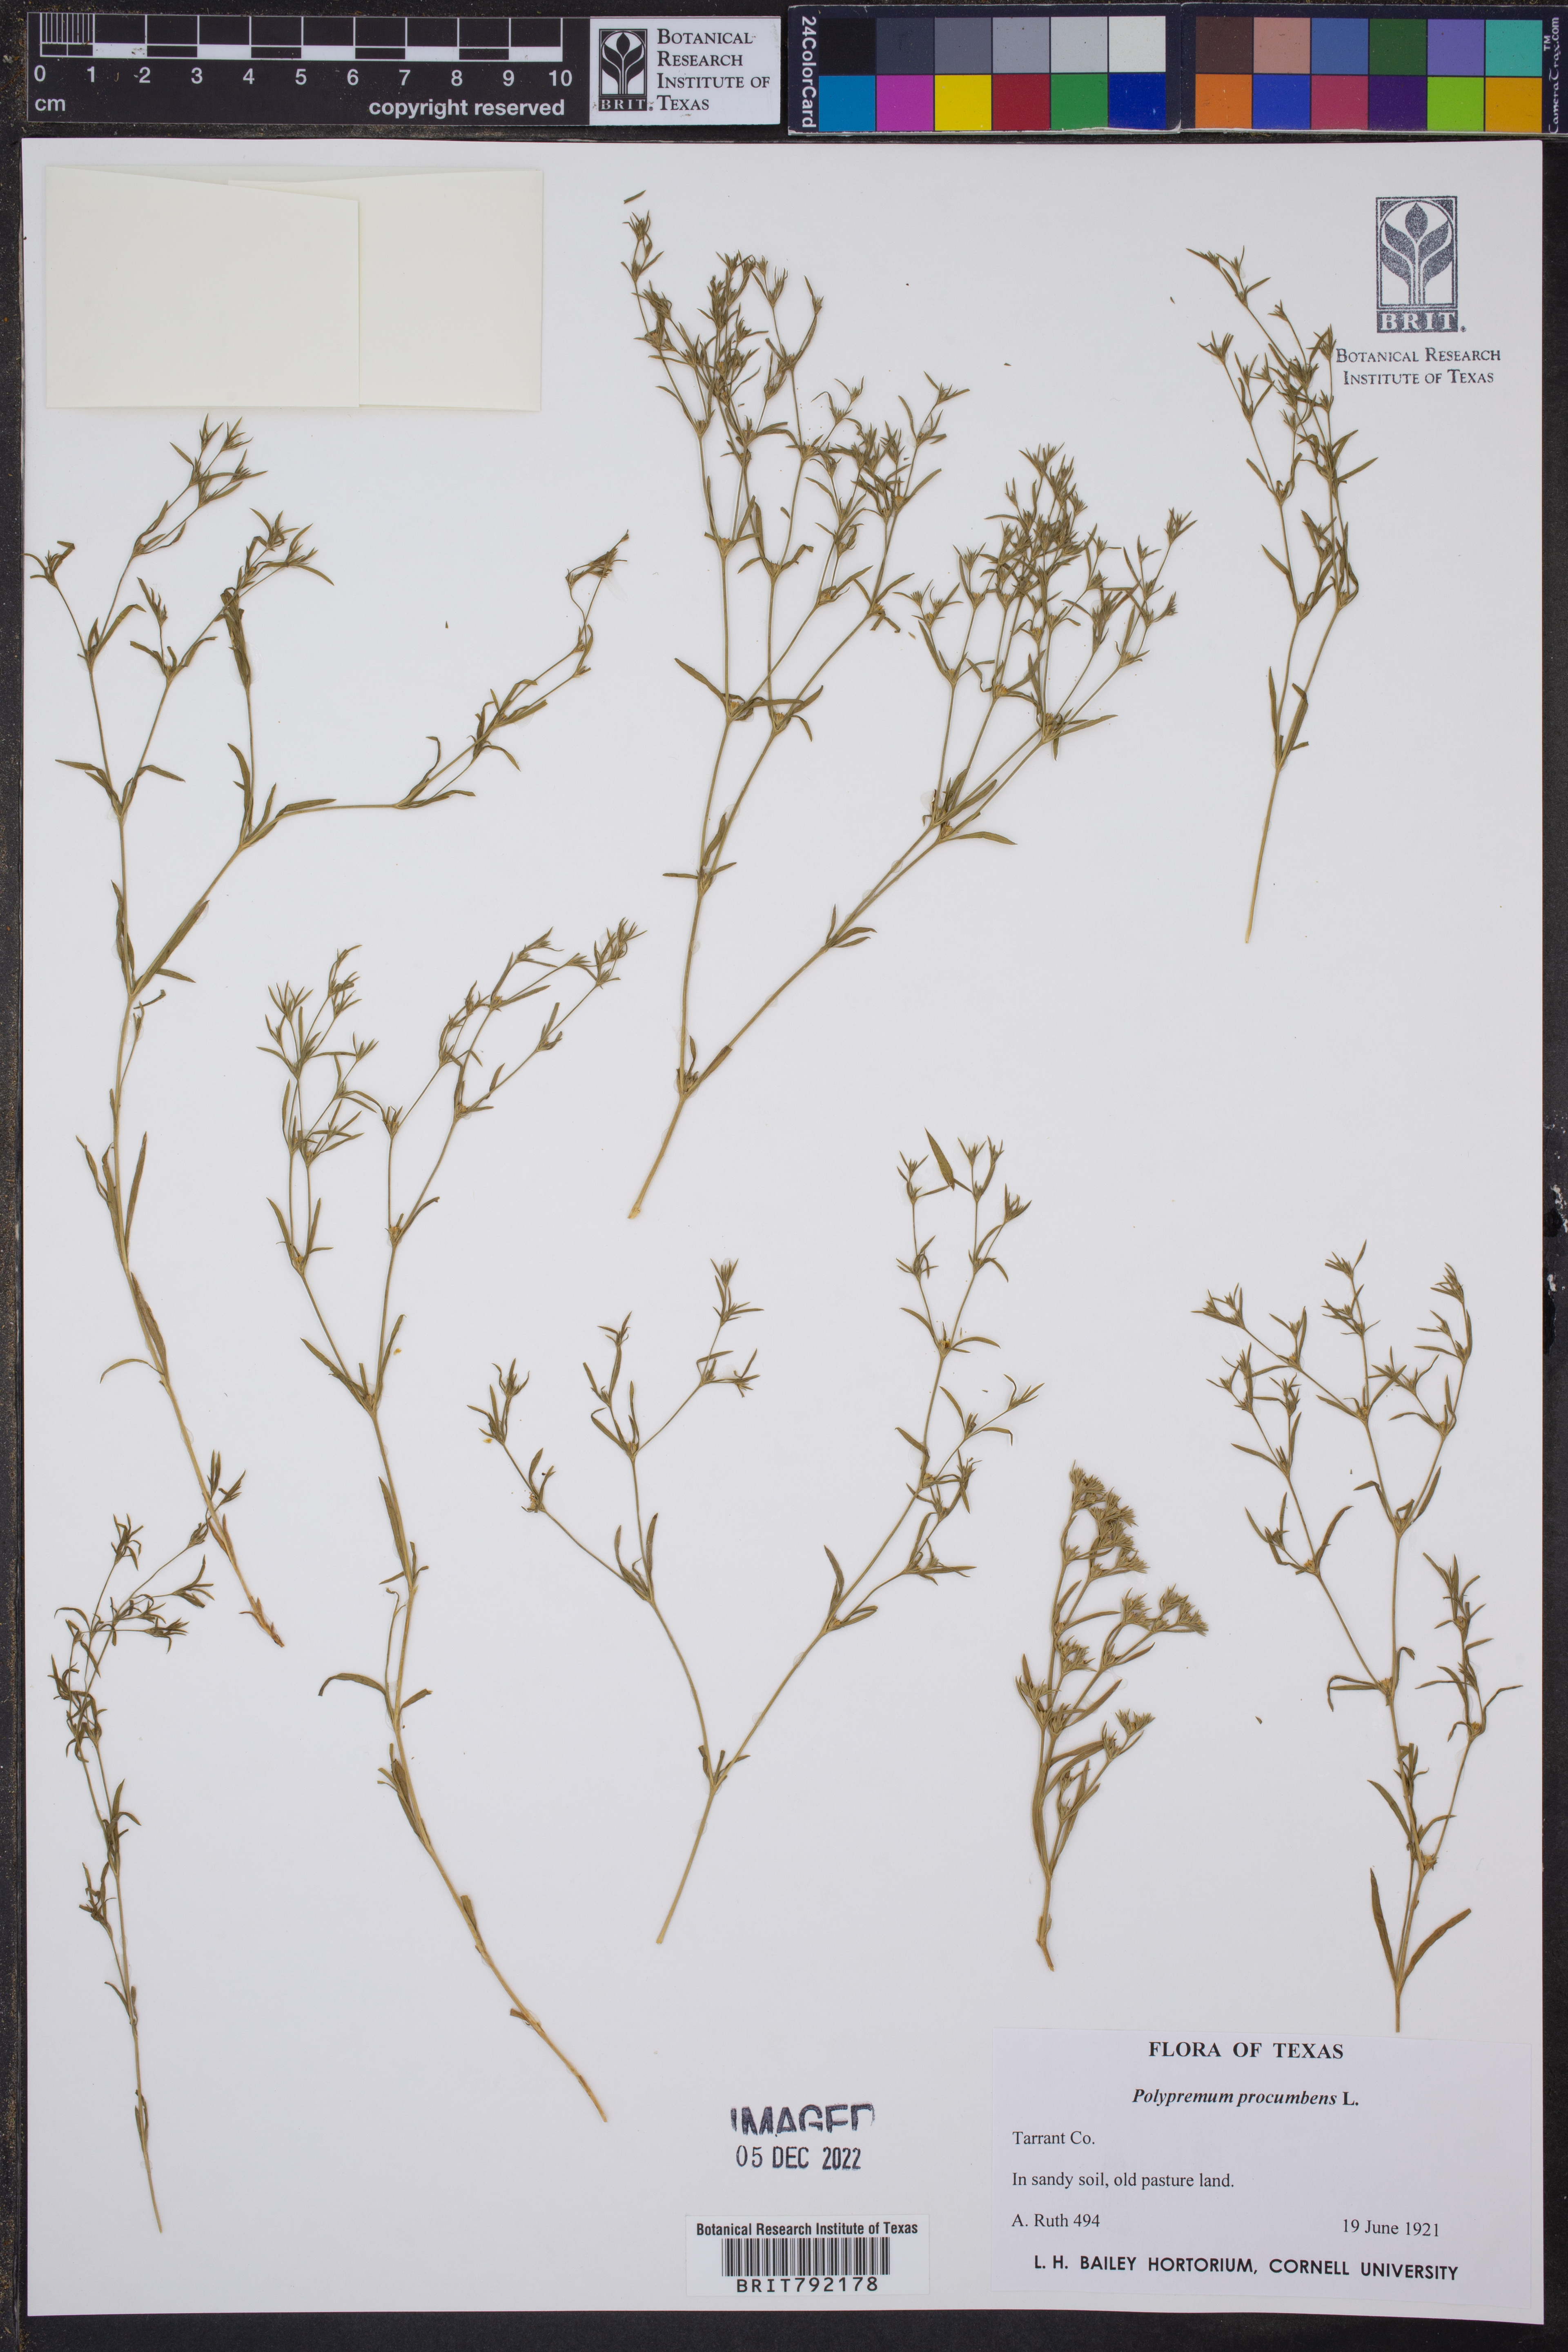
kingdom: Plantae
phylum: Tracheophyta
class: Magnoliopsida
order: Lamiales
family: Tetrachondraceae
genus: Polypremum
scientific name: Polypremum procumbens
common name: Juniper-leaf
